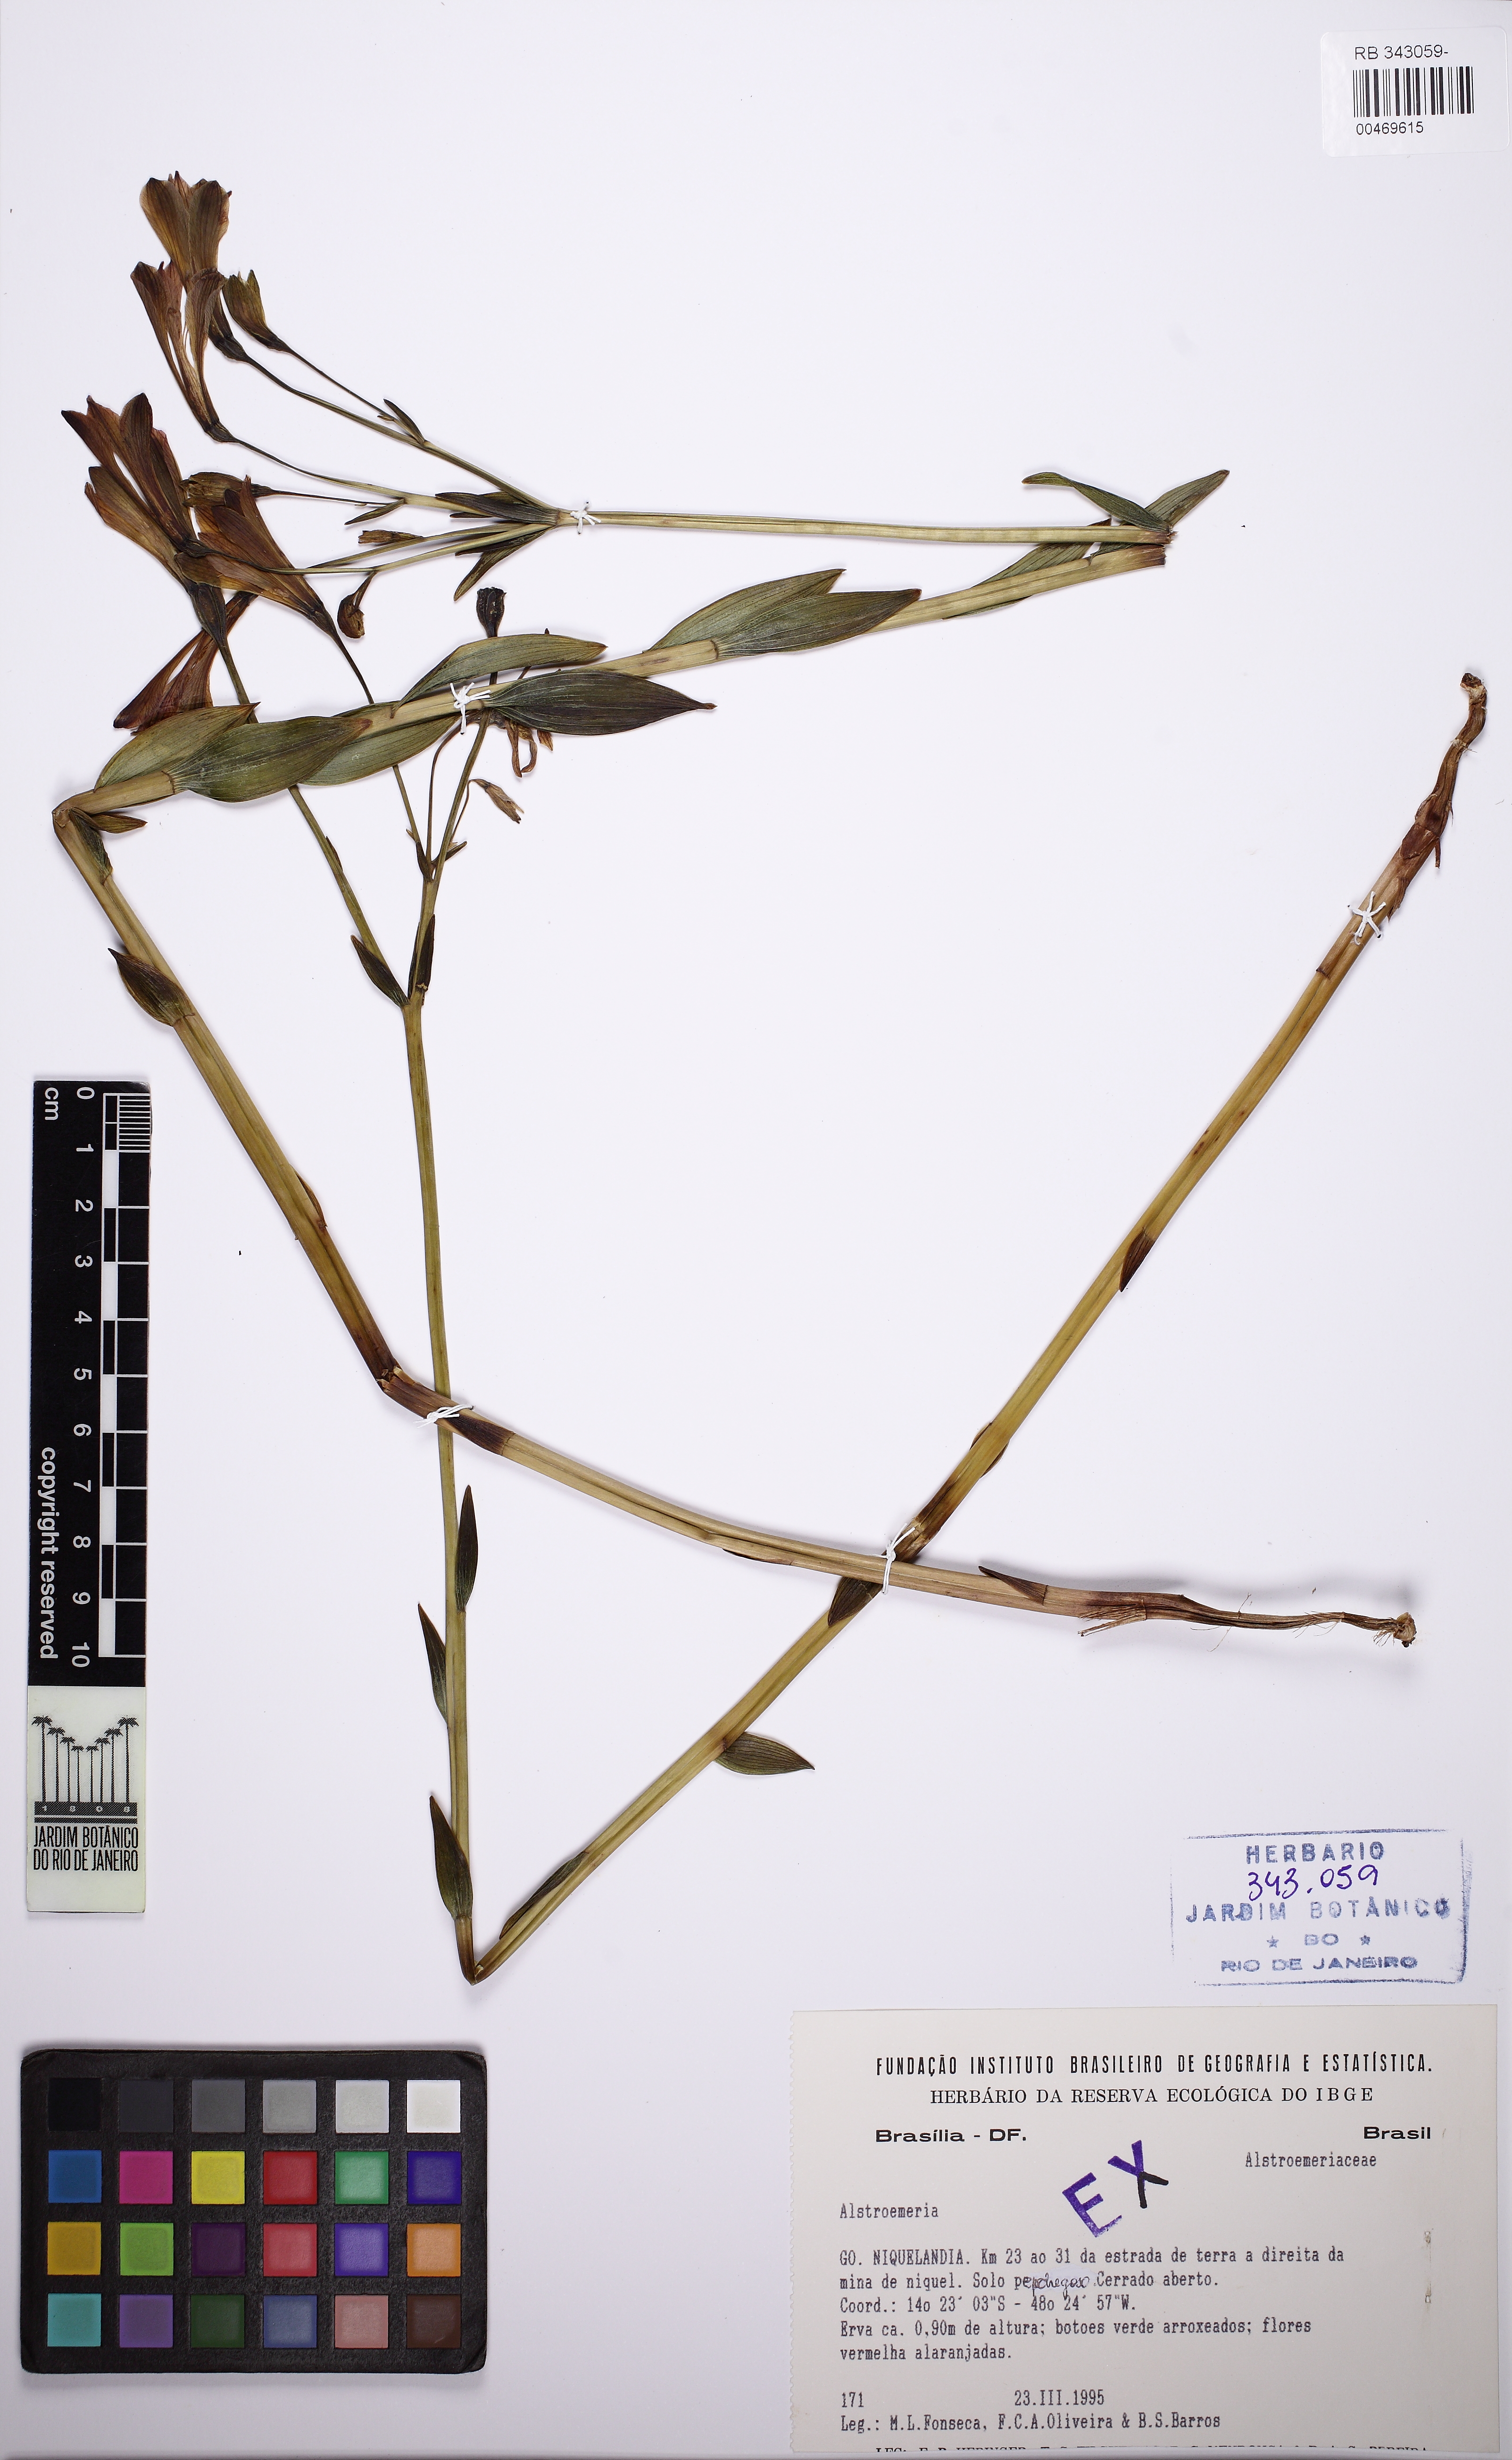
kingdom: Plantae
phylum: Tracheophyta
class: Liliopsida
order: Liliales
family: Alstroemeriaceae
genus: Alstroemeria
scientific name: Alstroemeria
